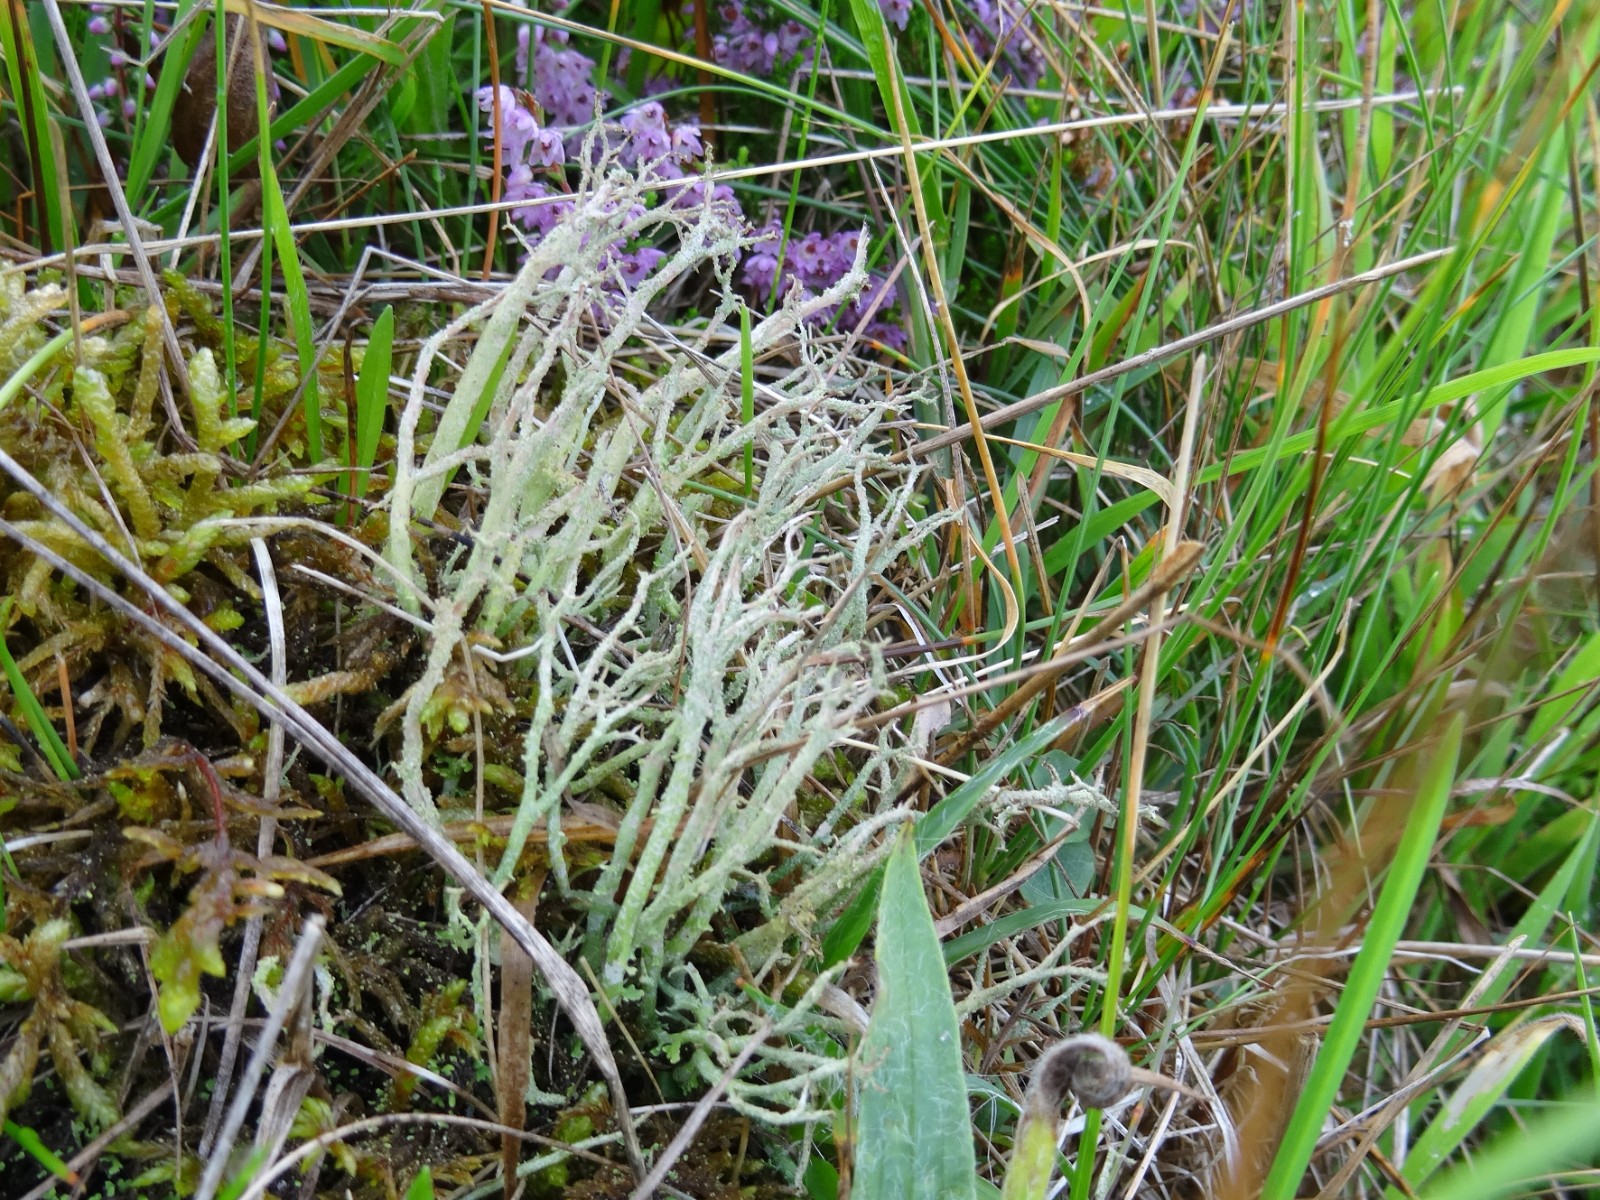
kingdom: Fungi
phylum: Ascomycota
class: Lecanoromycetes
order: Lecanorales
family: Cladoniaceae
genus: Cladonia
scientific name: Cladonia scabriuscula
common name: ru bægerlav
